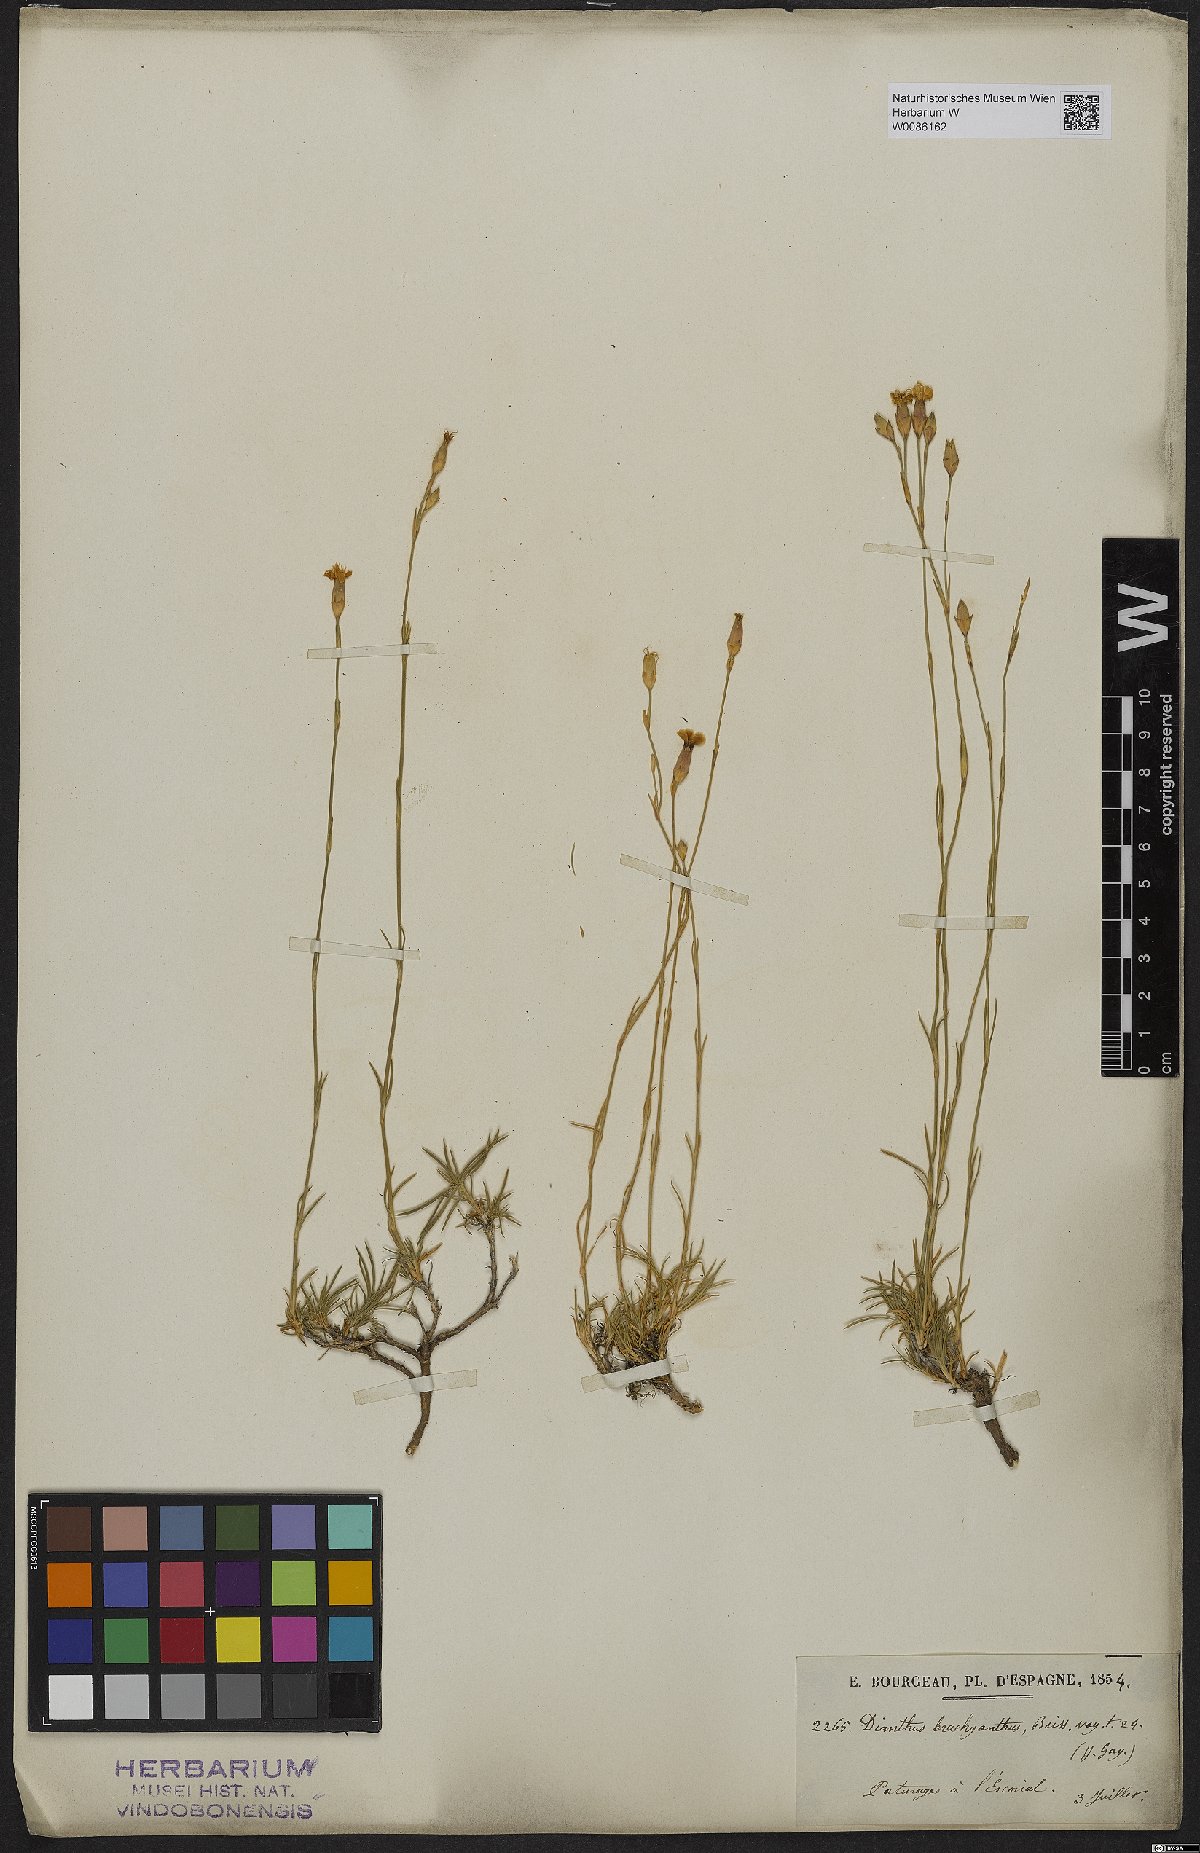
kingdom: Plantae
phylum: Tracheophyta
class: Magnoliopsida
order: Caryophyllales
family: Caryophyllaceae
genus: Dianthus
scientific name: Dianthus pungens
